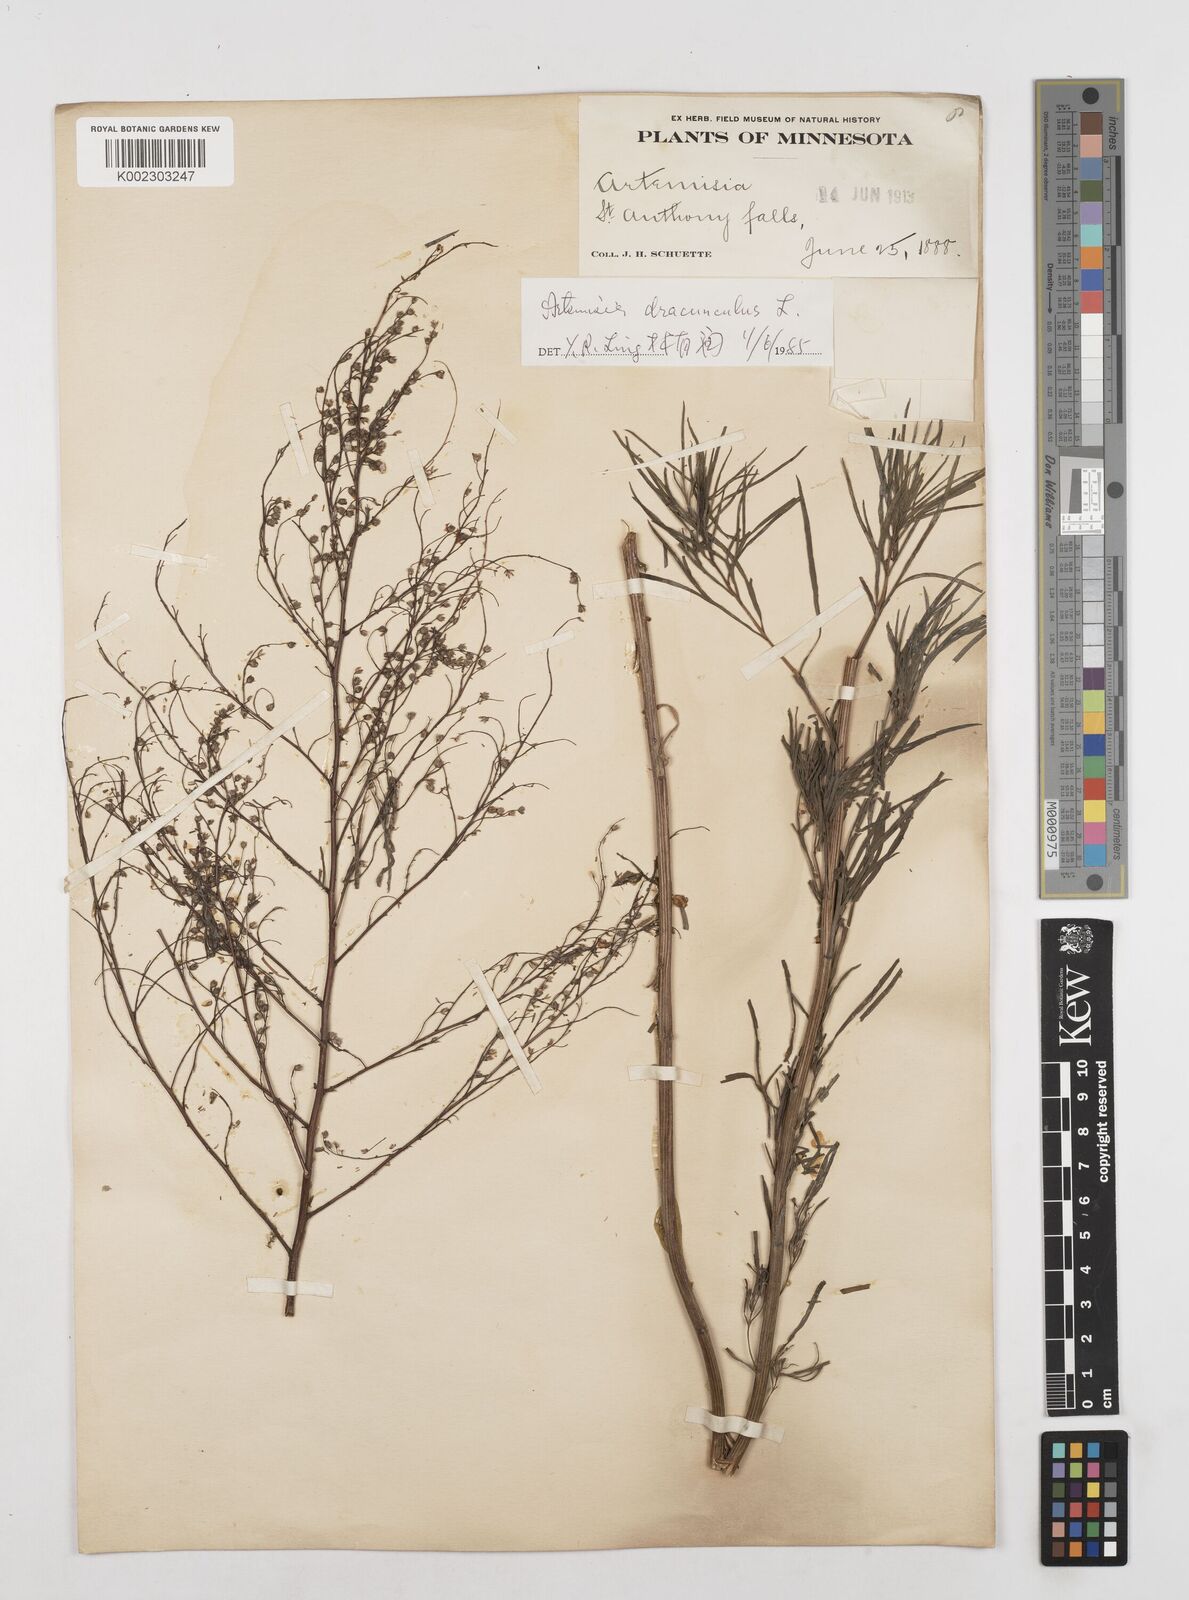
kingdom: Plantae
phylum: Tracheophyta
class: Magnoliopsida
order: Asterales
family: Asteraceae
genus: Artemisia
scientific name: Artemisia dracunculus
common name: Tarragon
